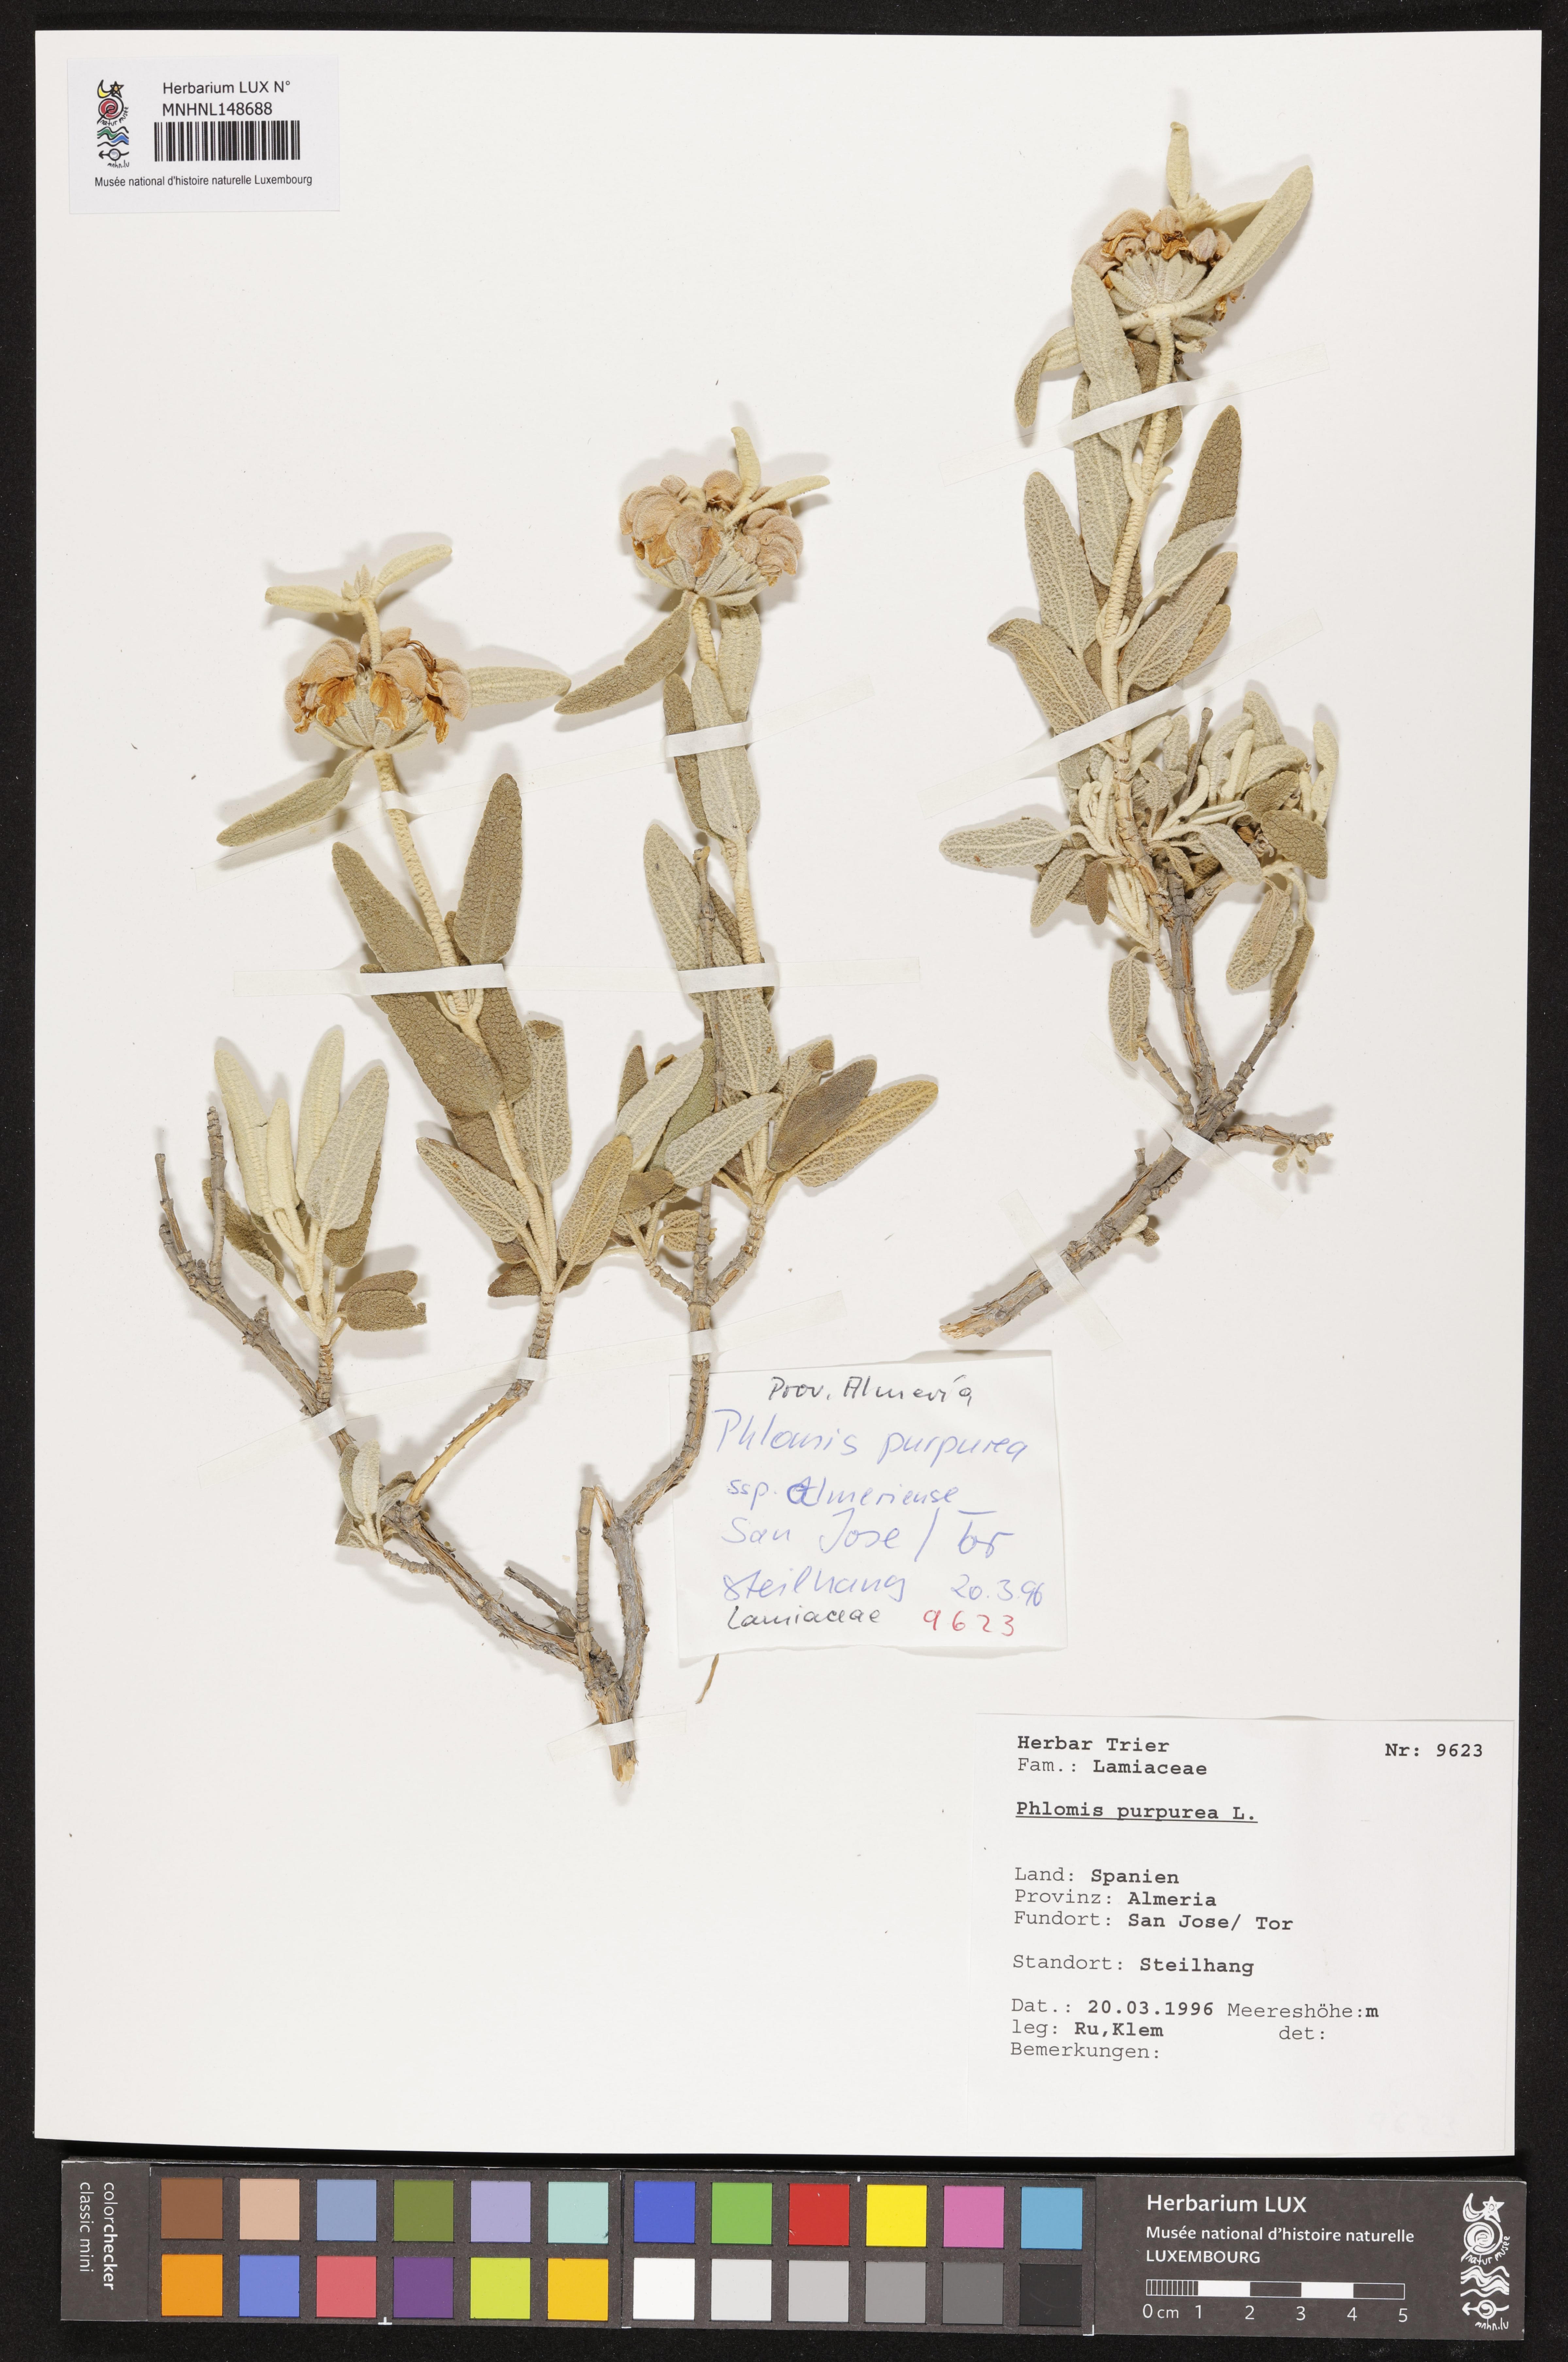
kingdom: Plantae
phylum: Tracheophyta
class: Magnoliopsida
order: Lamiales
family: Lamiaceae
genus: Phlomis
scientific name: Phlomis purpurea
